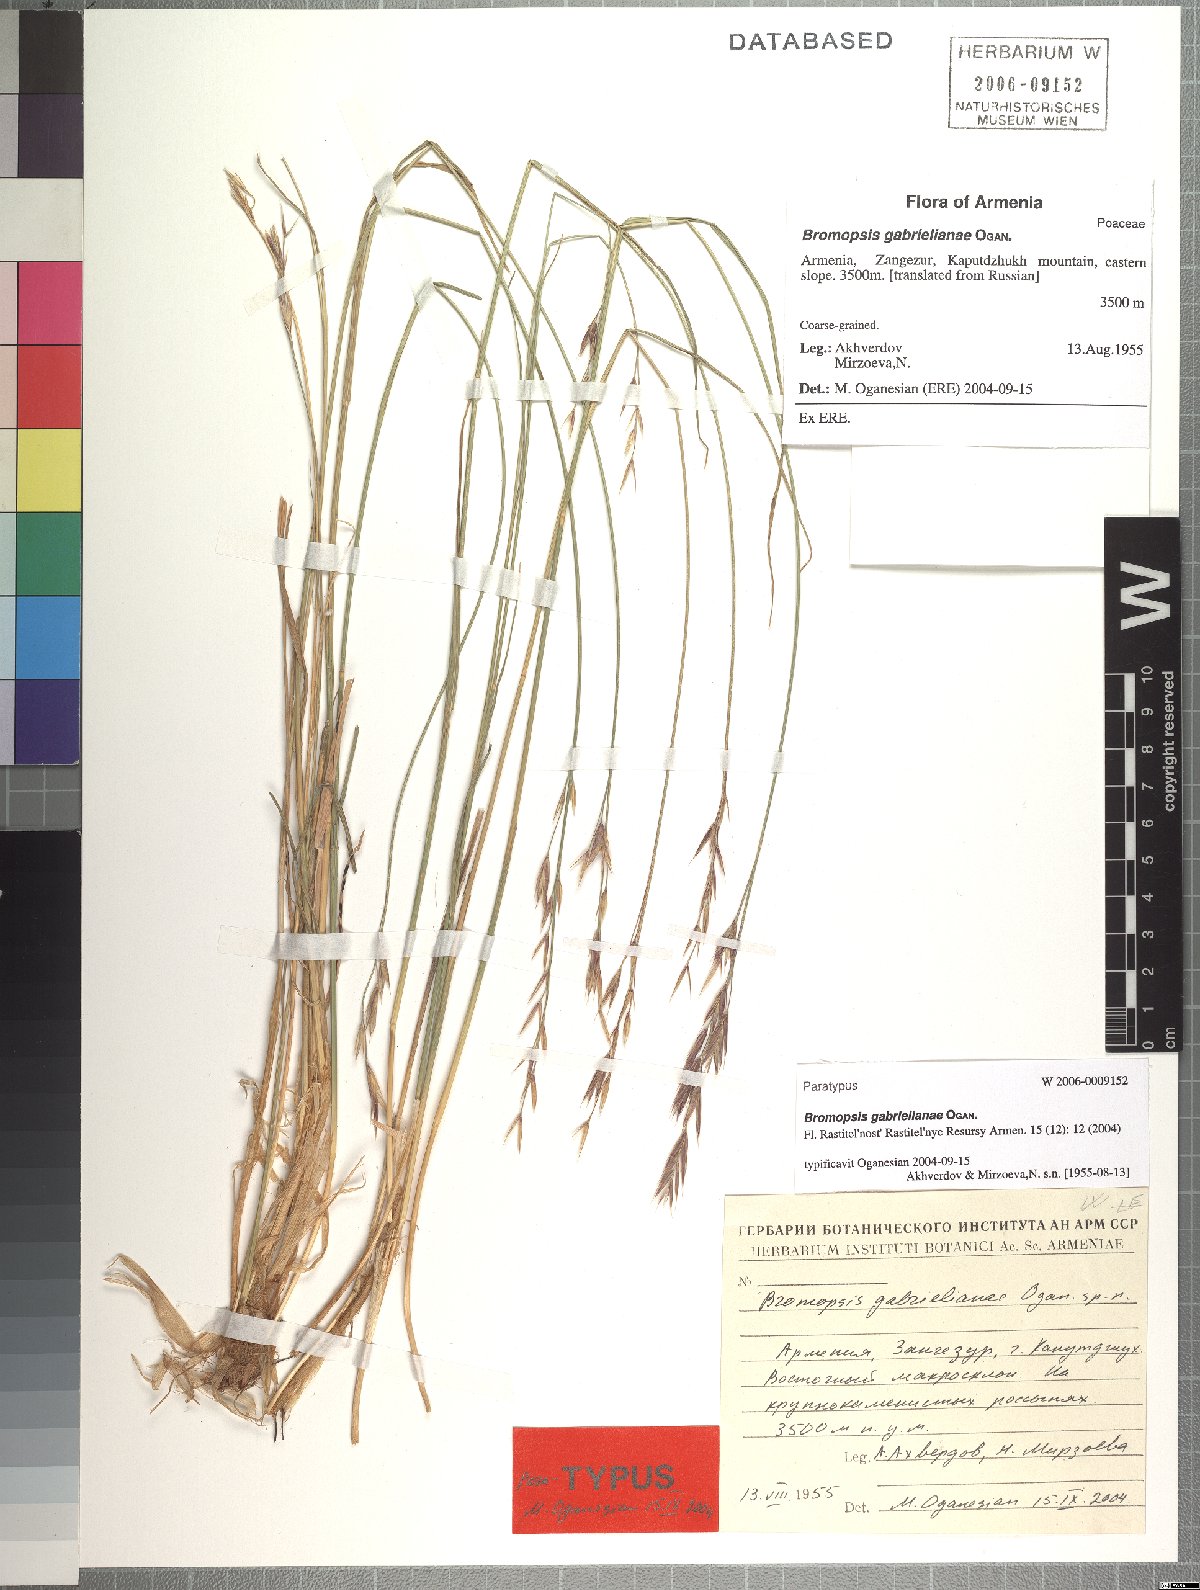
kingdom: Plantae
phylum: Tracheophyta
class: Liliopsida
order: Poales
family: Poaceae
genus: Bromus
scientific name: Bromus tomentosus
